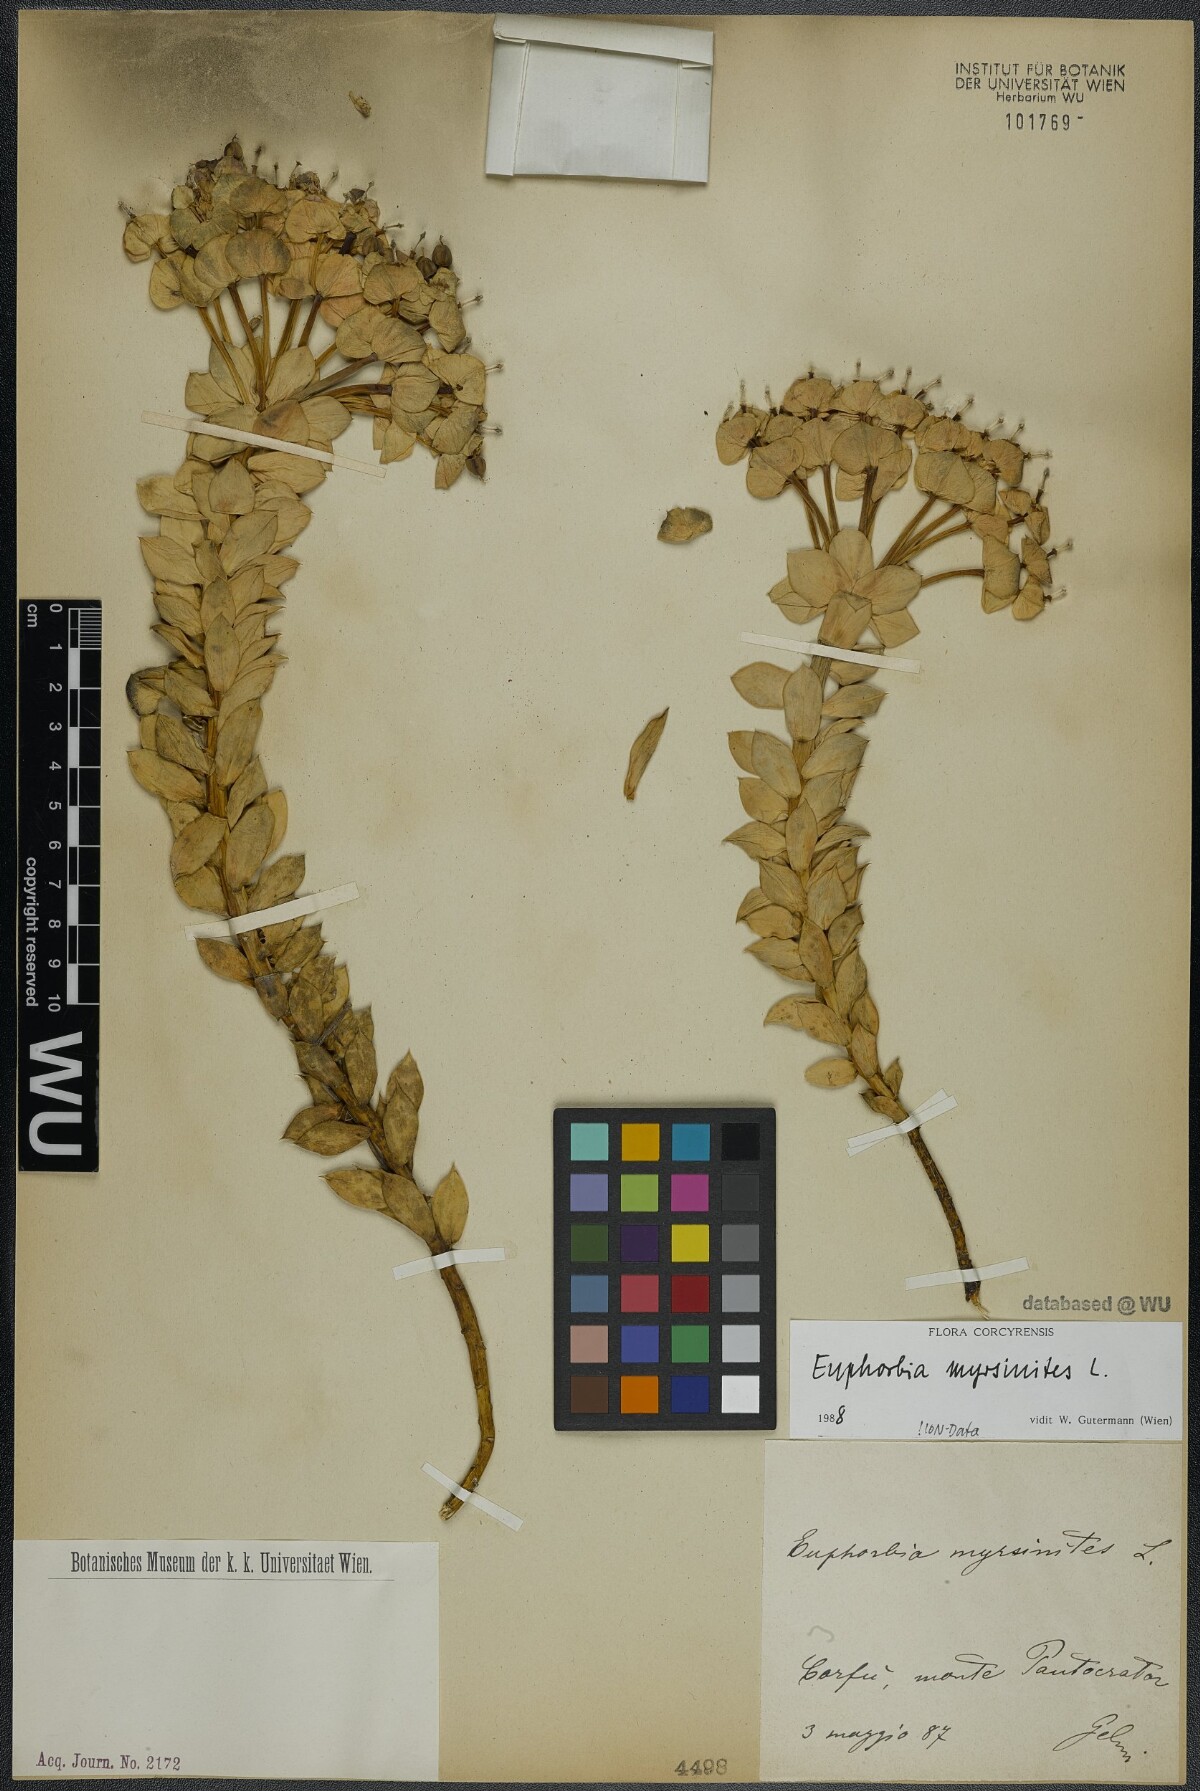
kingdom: Plantae
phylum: Tracheophyta
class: Magnoliopsida
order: Malpighiales
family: Euphorbiaceae
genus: Euphorbia
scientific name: Euphorbia myrsinites
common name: Myrtle spurge
